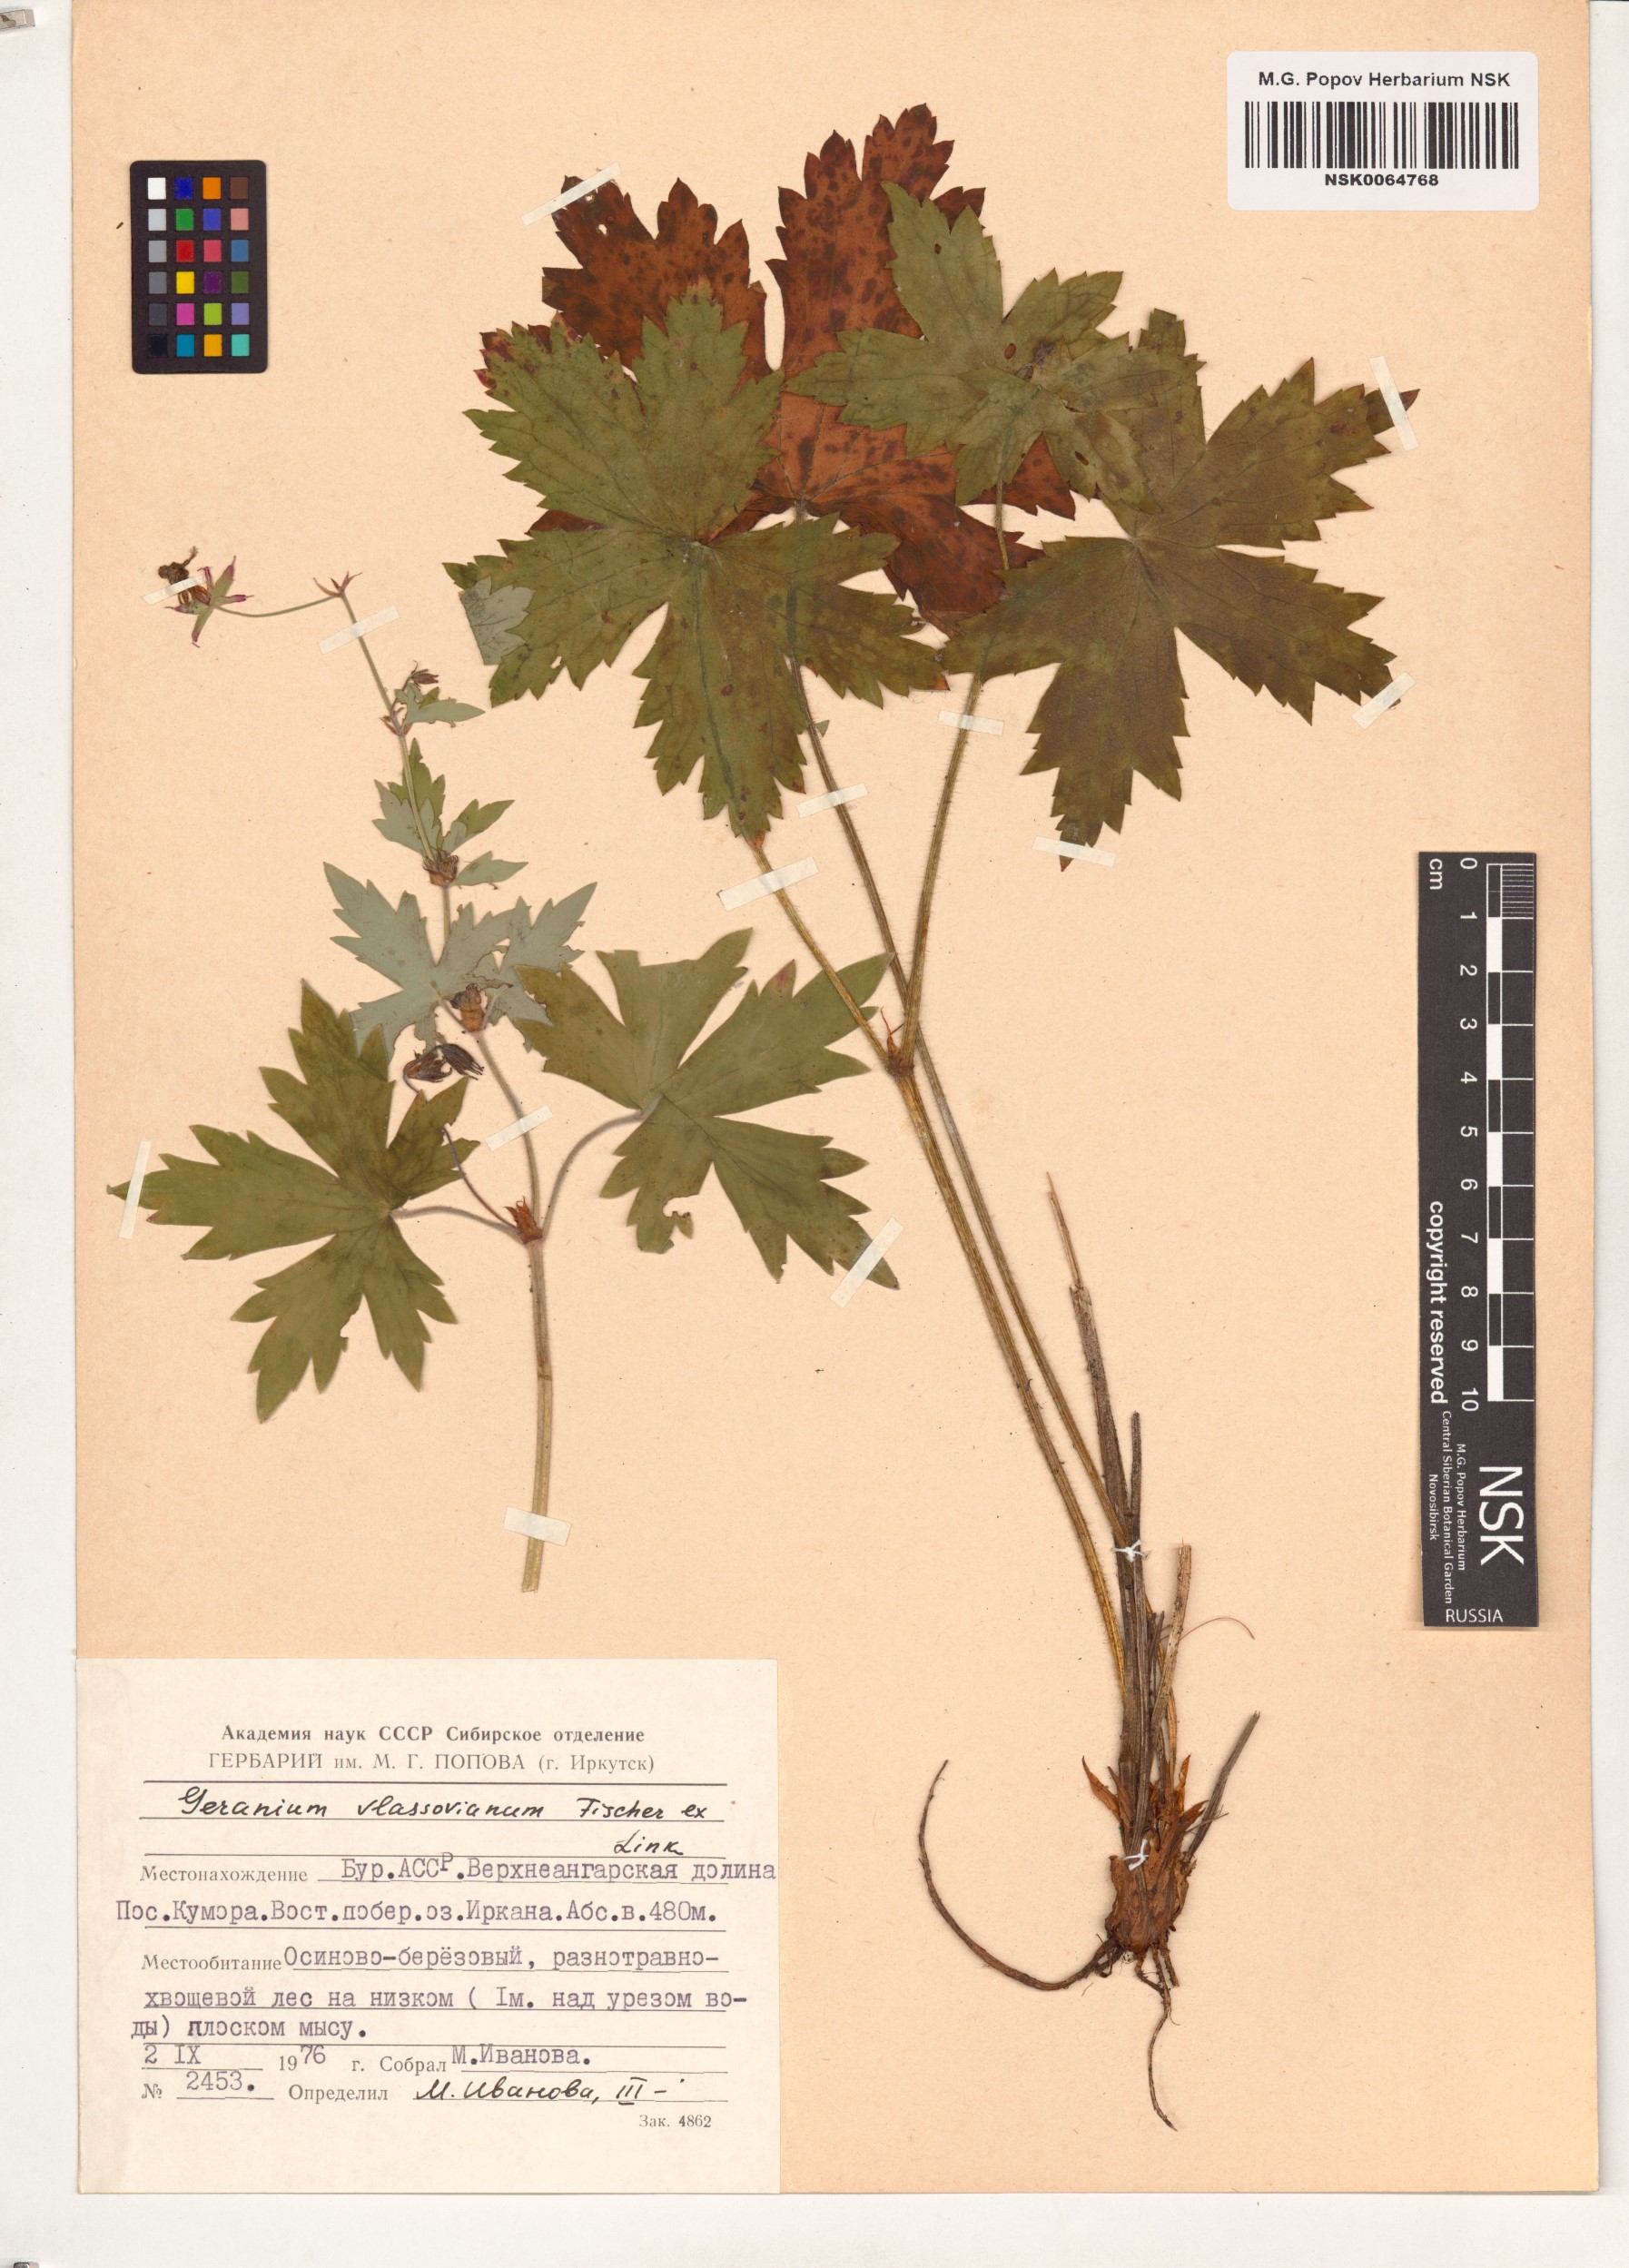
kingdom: Plantae
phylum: Tracheophyta
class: Magnoliopsida
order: Geraniales
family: Geraniaceae
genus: Geranium
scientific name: Geranium wlassovianum
